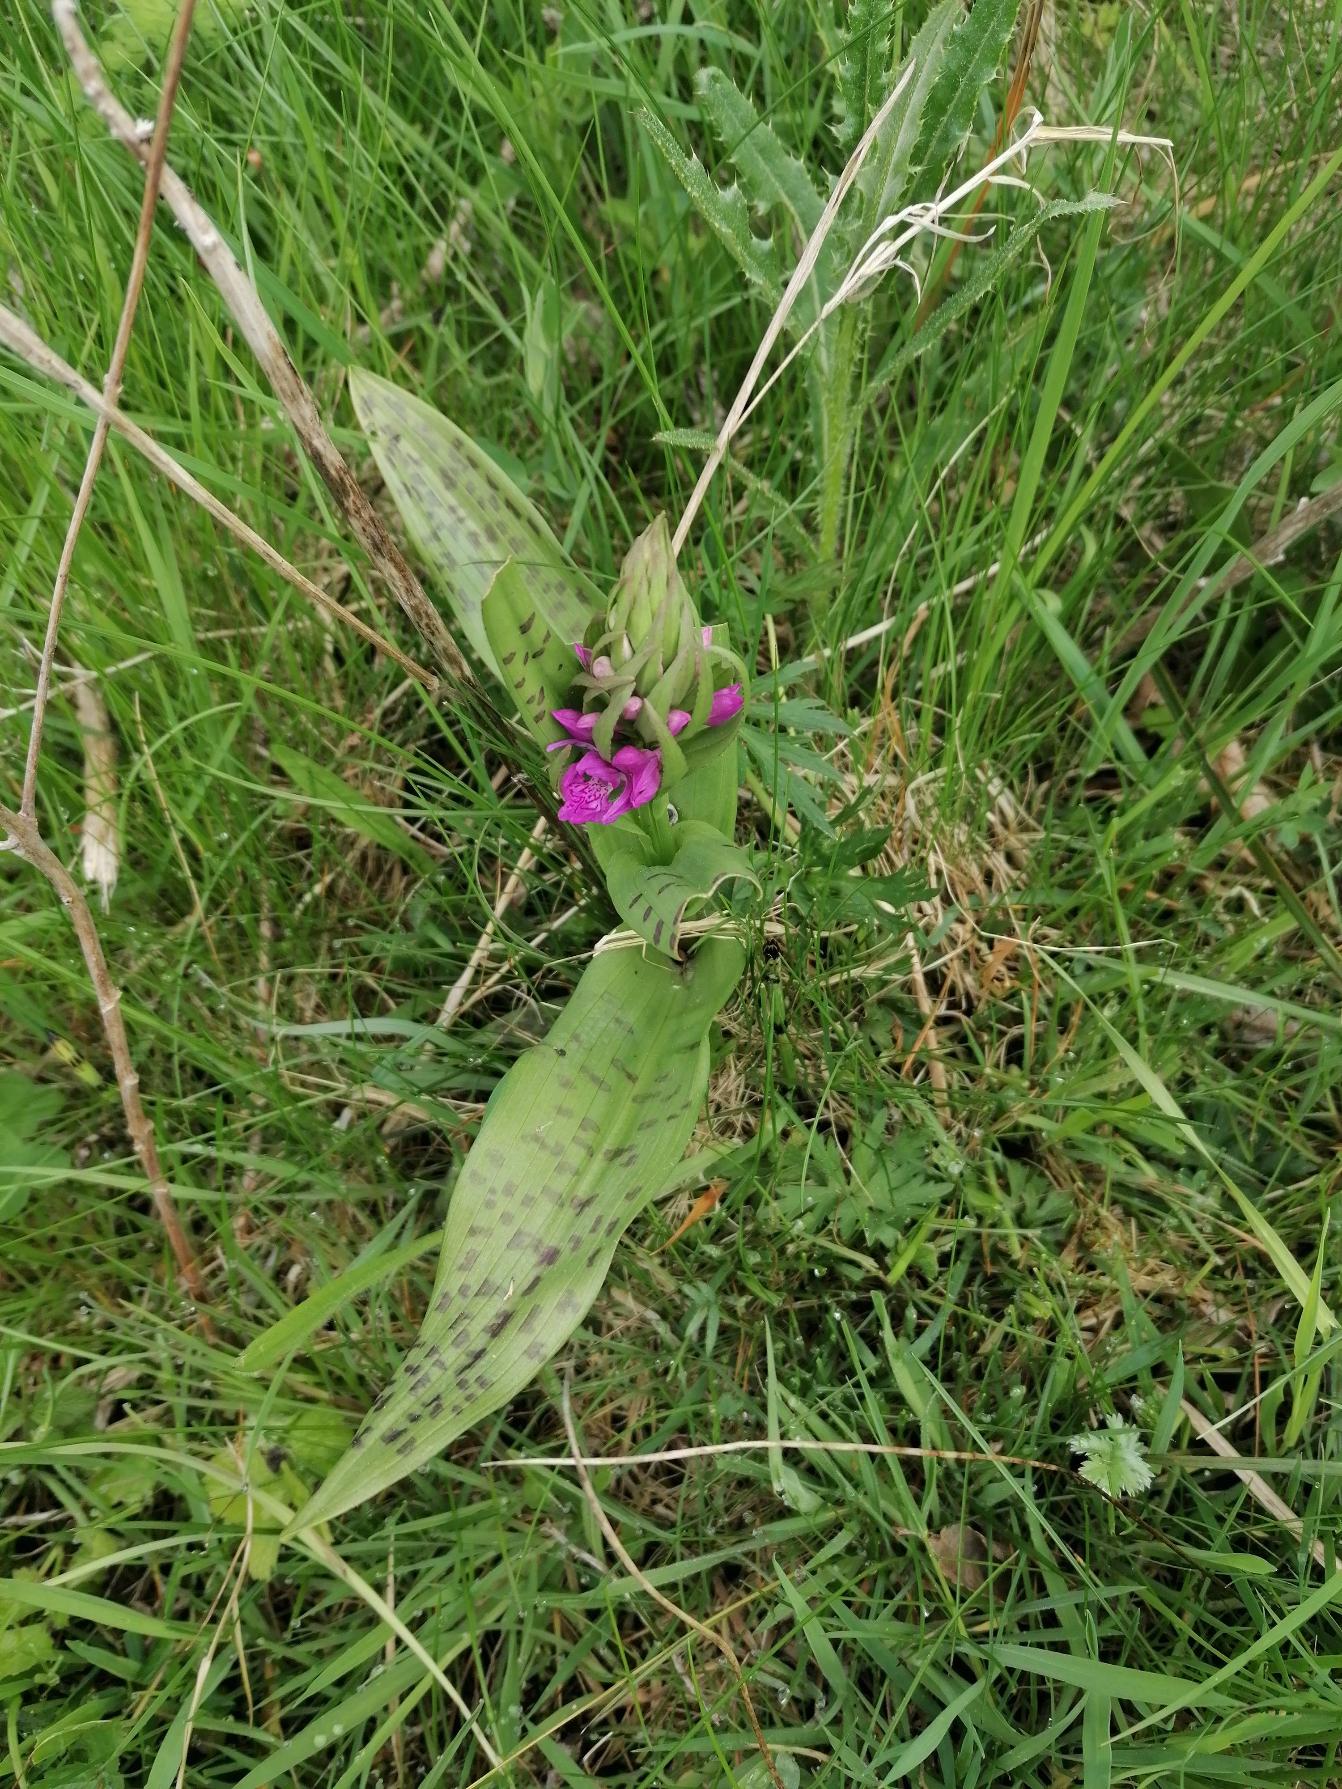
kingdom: Plantae
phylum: Tracheophyta
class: Liliopsida
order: Asparagales
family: Orchidaceae
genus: Dactylorhiza
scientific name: Dactylorhiza majalis
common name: Maj-gøgeurt
